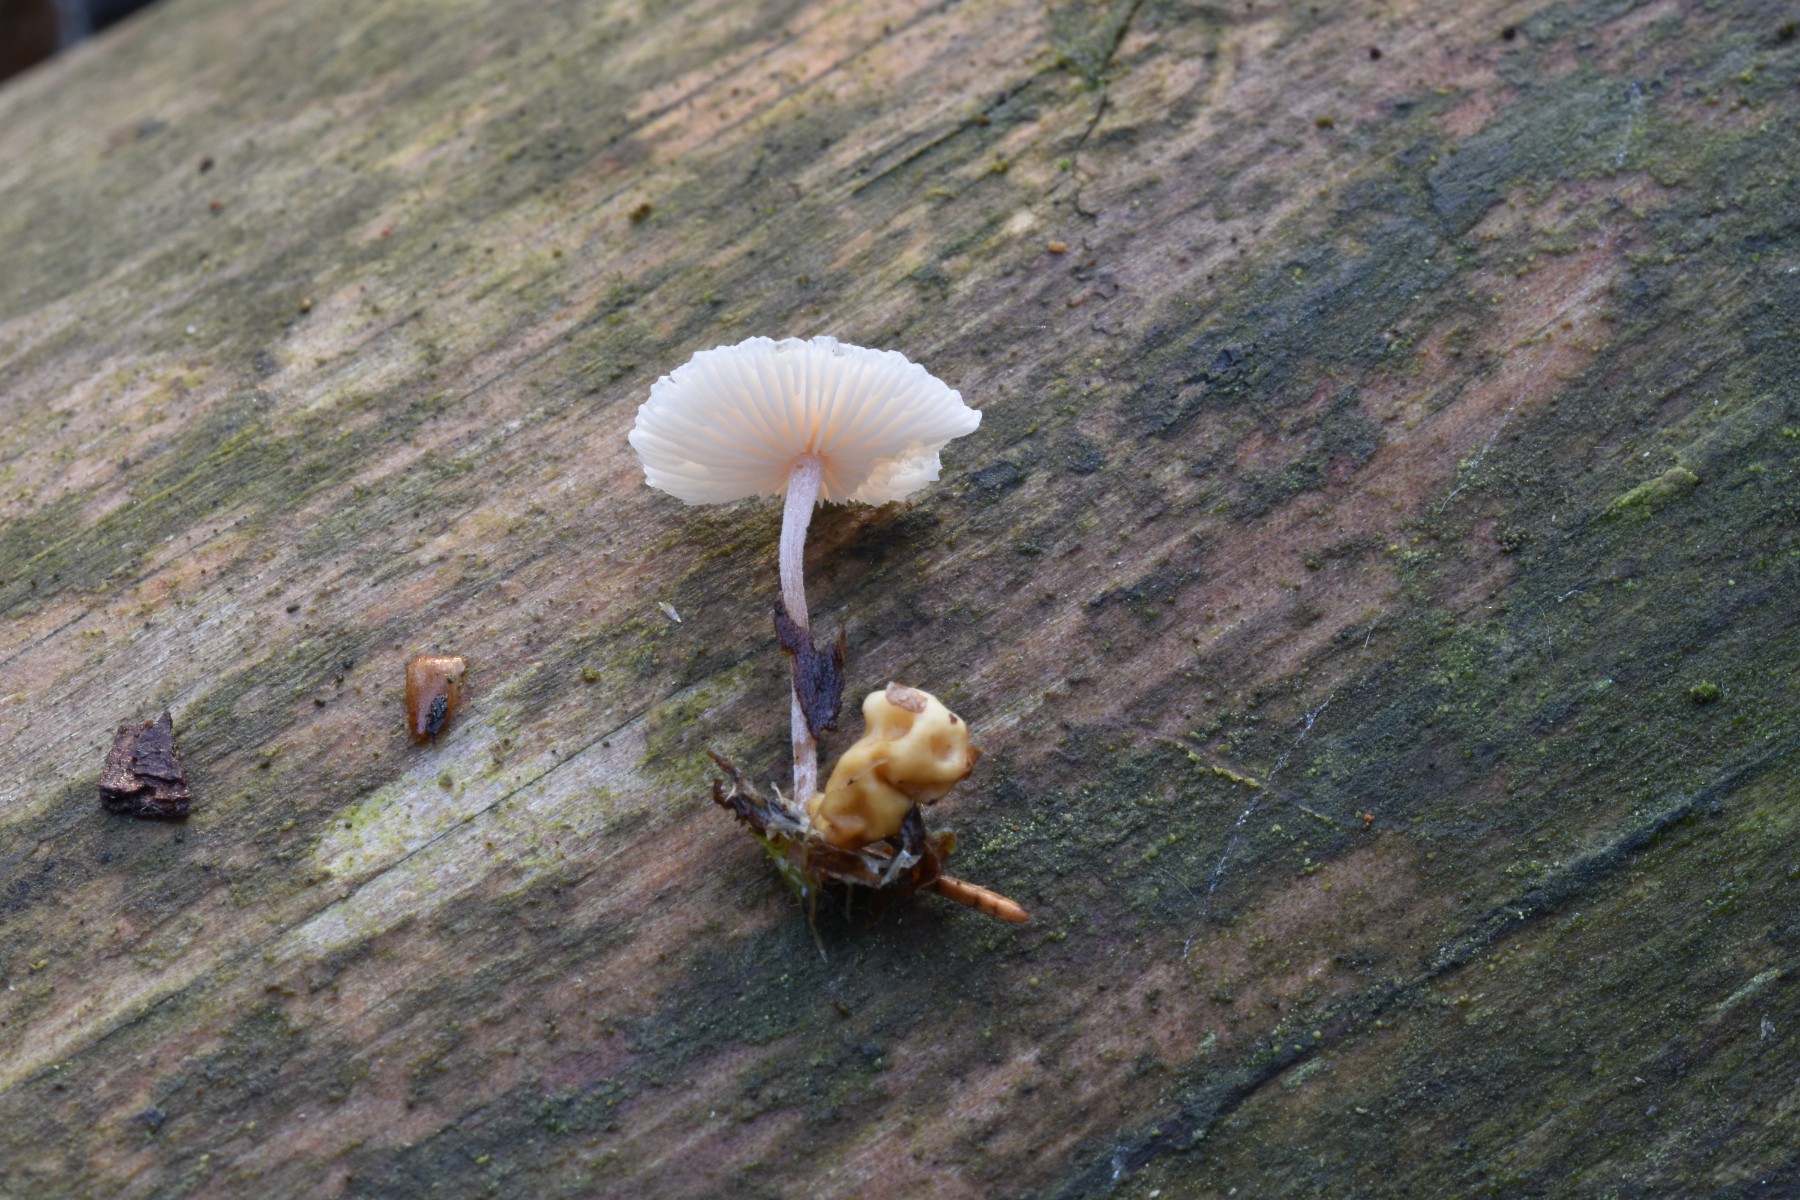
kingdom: Fungi
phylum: Basidiomycota
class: Agaricomycetes
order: Agaricales
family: Tricholomataceae
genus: Collybia
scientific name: Collybia cookei
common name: gulknoldet lighat
